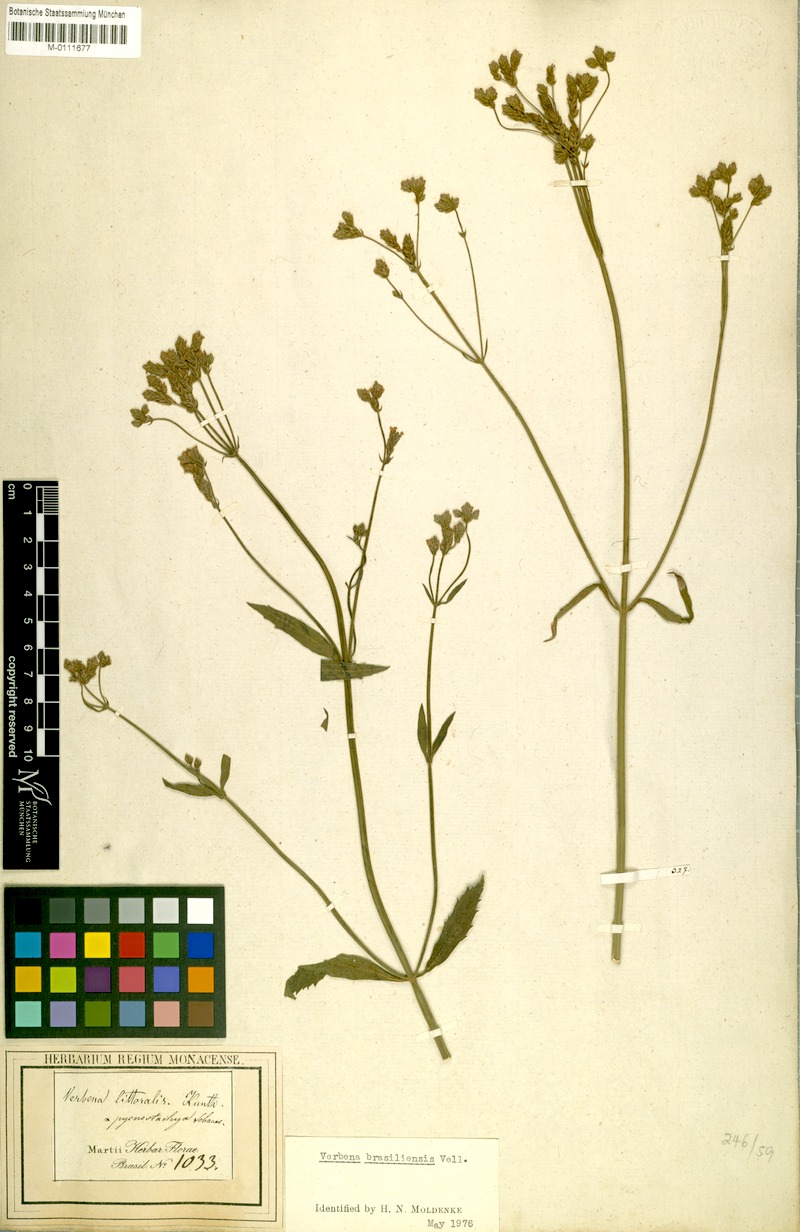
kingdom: Plantae
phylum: Tracheophyta
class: Magnoliopsida
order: Lamiales
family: Verbenaceae
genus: Verbena
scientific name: Verbena litoralis
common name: Seashore vervain
